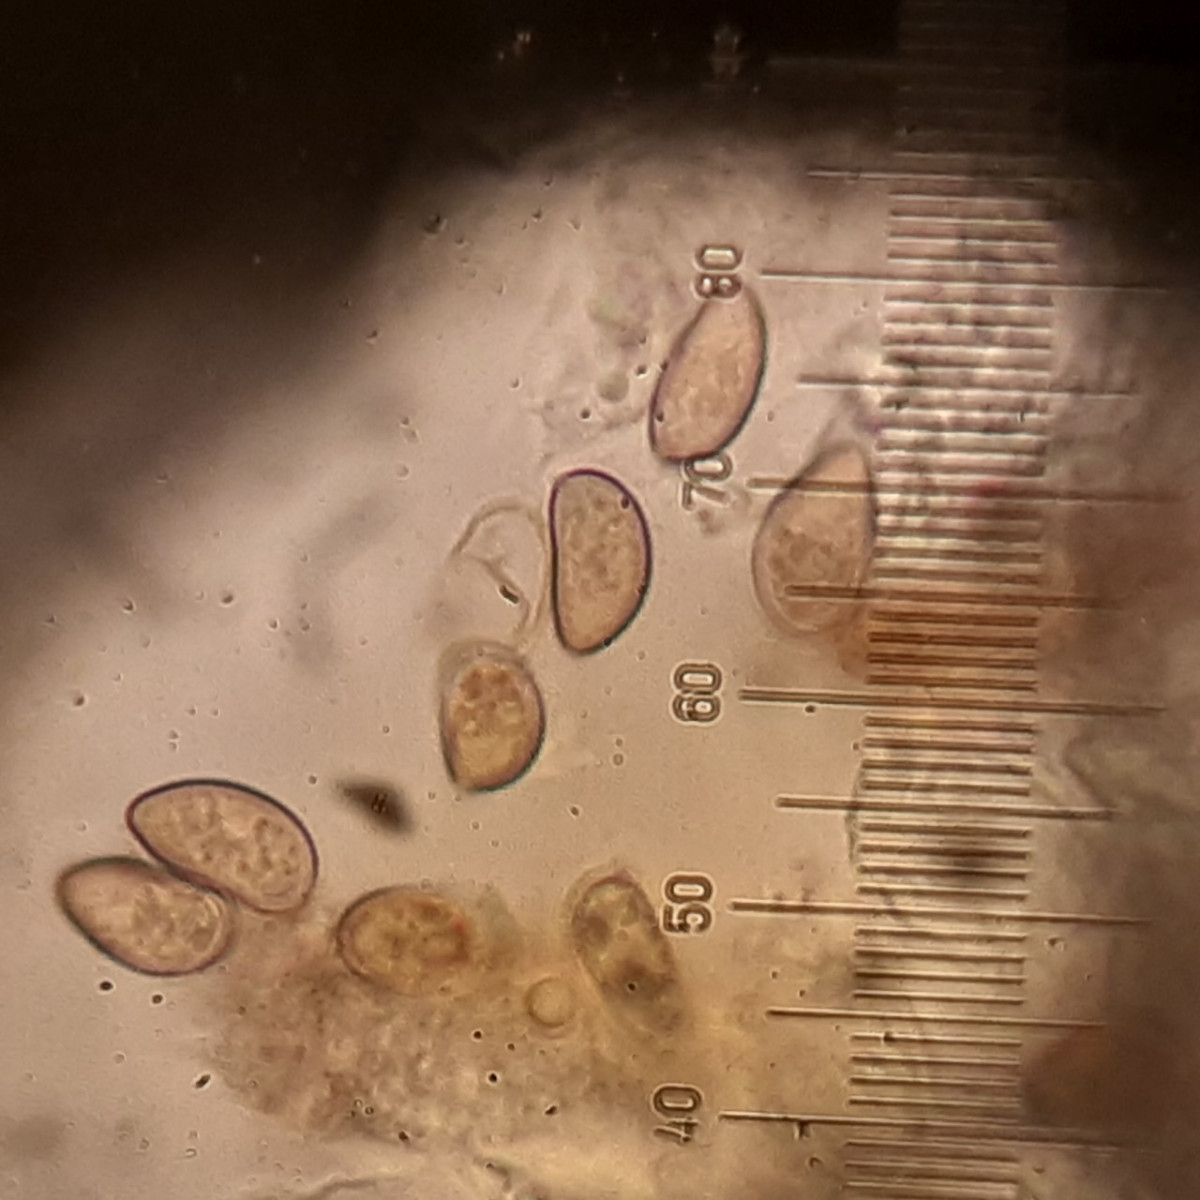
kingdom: Fungi
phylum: Basidiomycota
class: Agaricomycetes
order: Agaricales
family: Inocybaceae
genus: Inocybe
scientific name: Inocybe
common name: trævlhat
